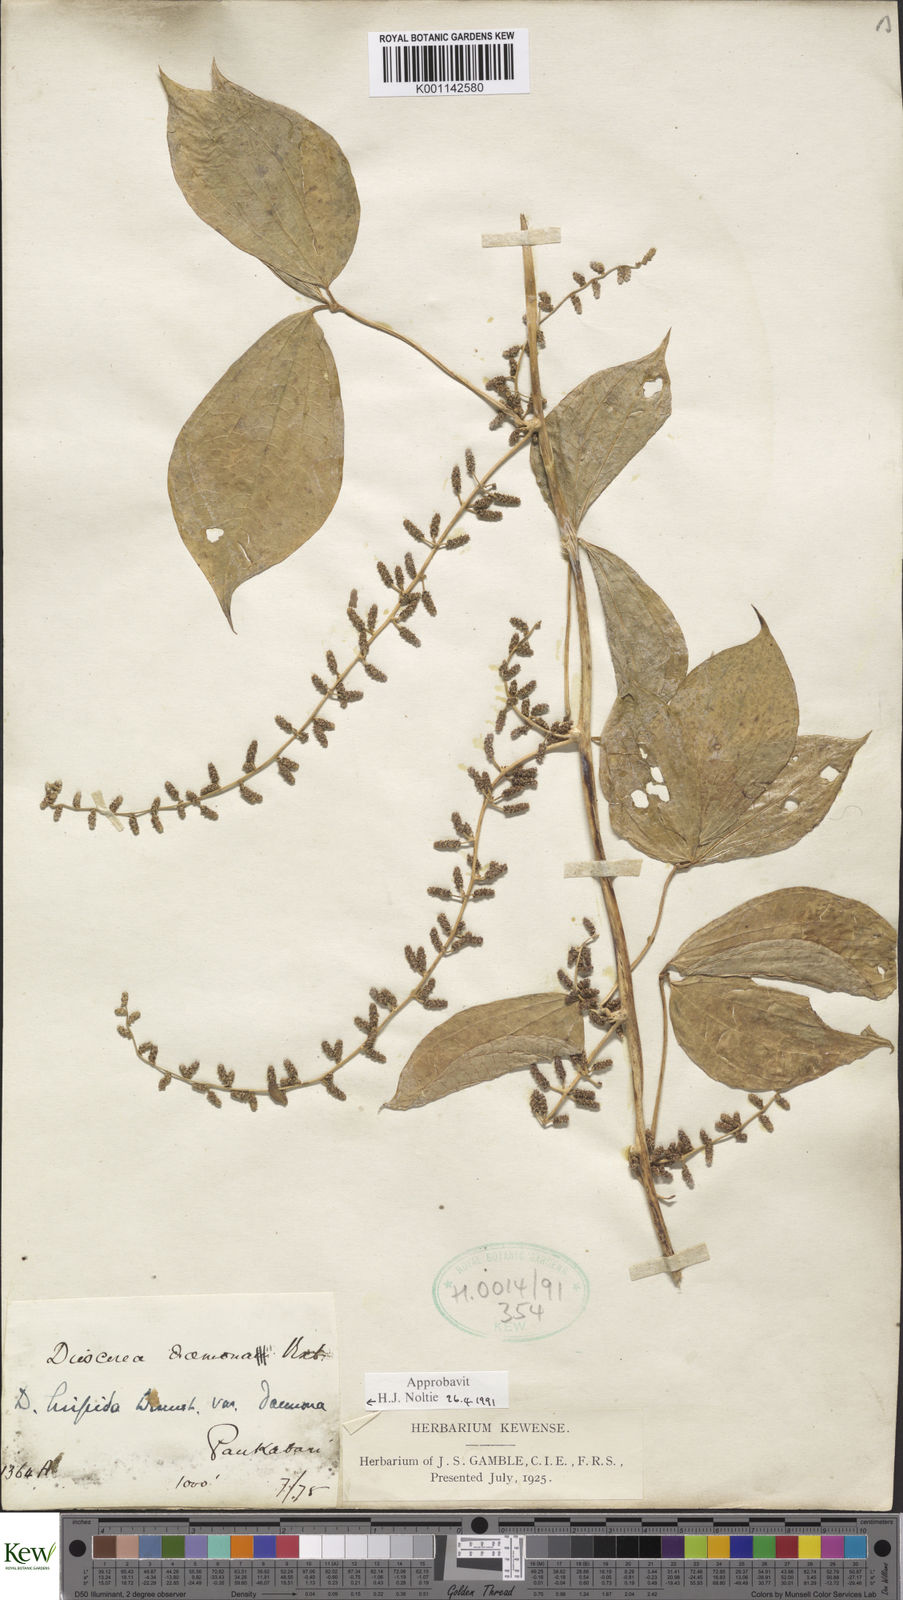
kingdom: Plantae
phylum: Tracheophyta
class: Liliopsida
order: Dioscoreales
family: Dioscoreaceae
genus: Dioscorea
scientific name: Dioscorea pentaphylla
